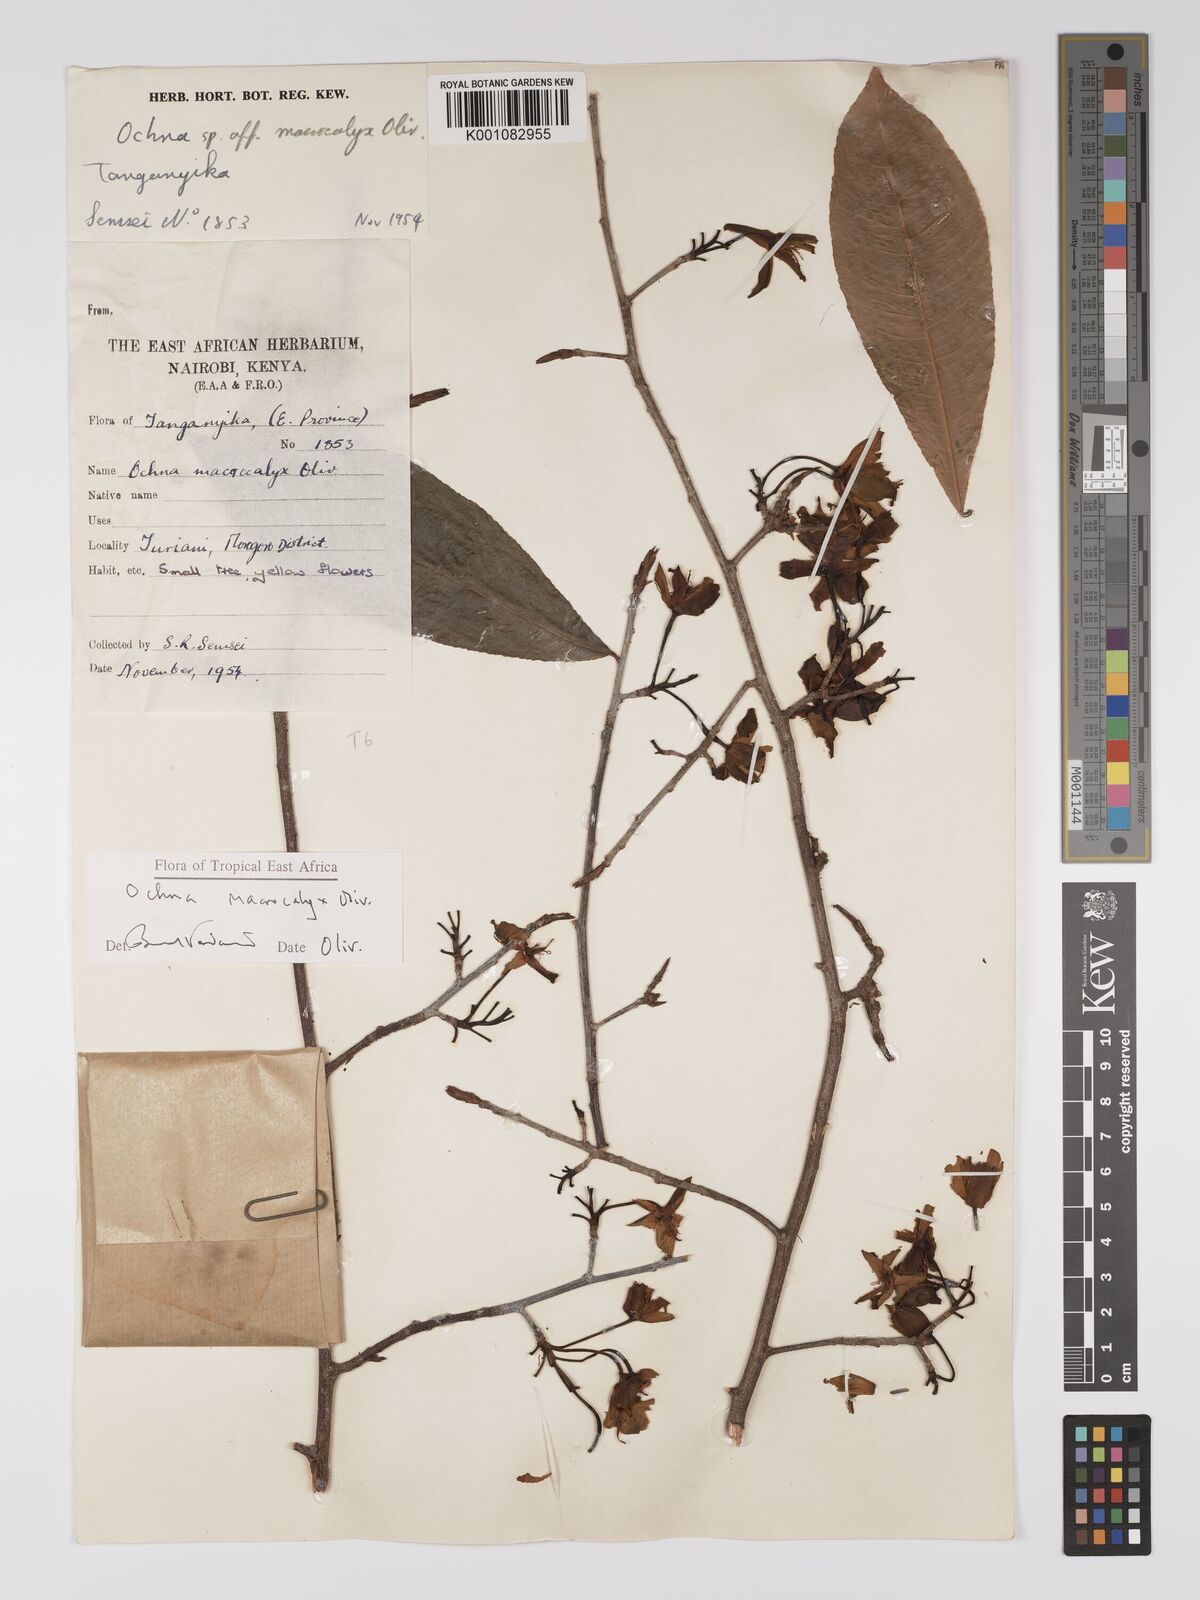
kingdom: Plantae
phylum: Tracheophyta
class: Magnoliopsida
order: Malpighiales
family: Ochnaceae
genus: Ochna
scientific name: Ochna macrocalyx
